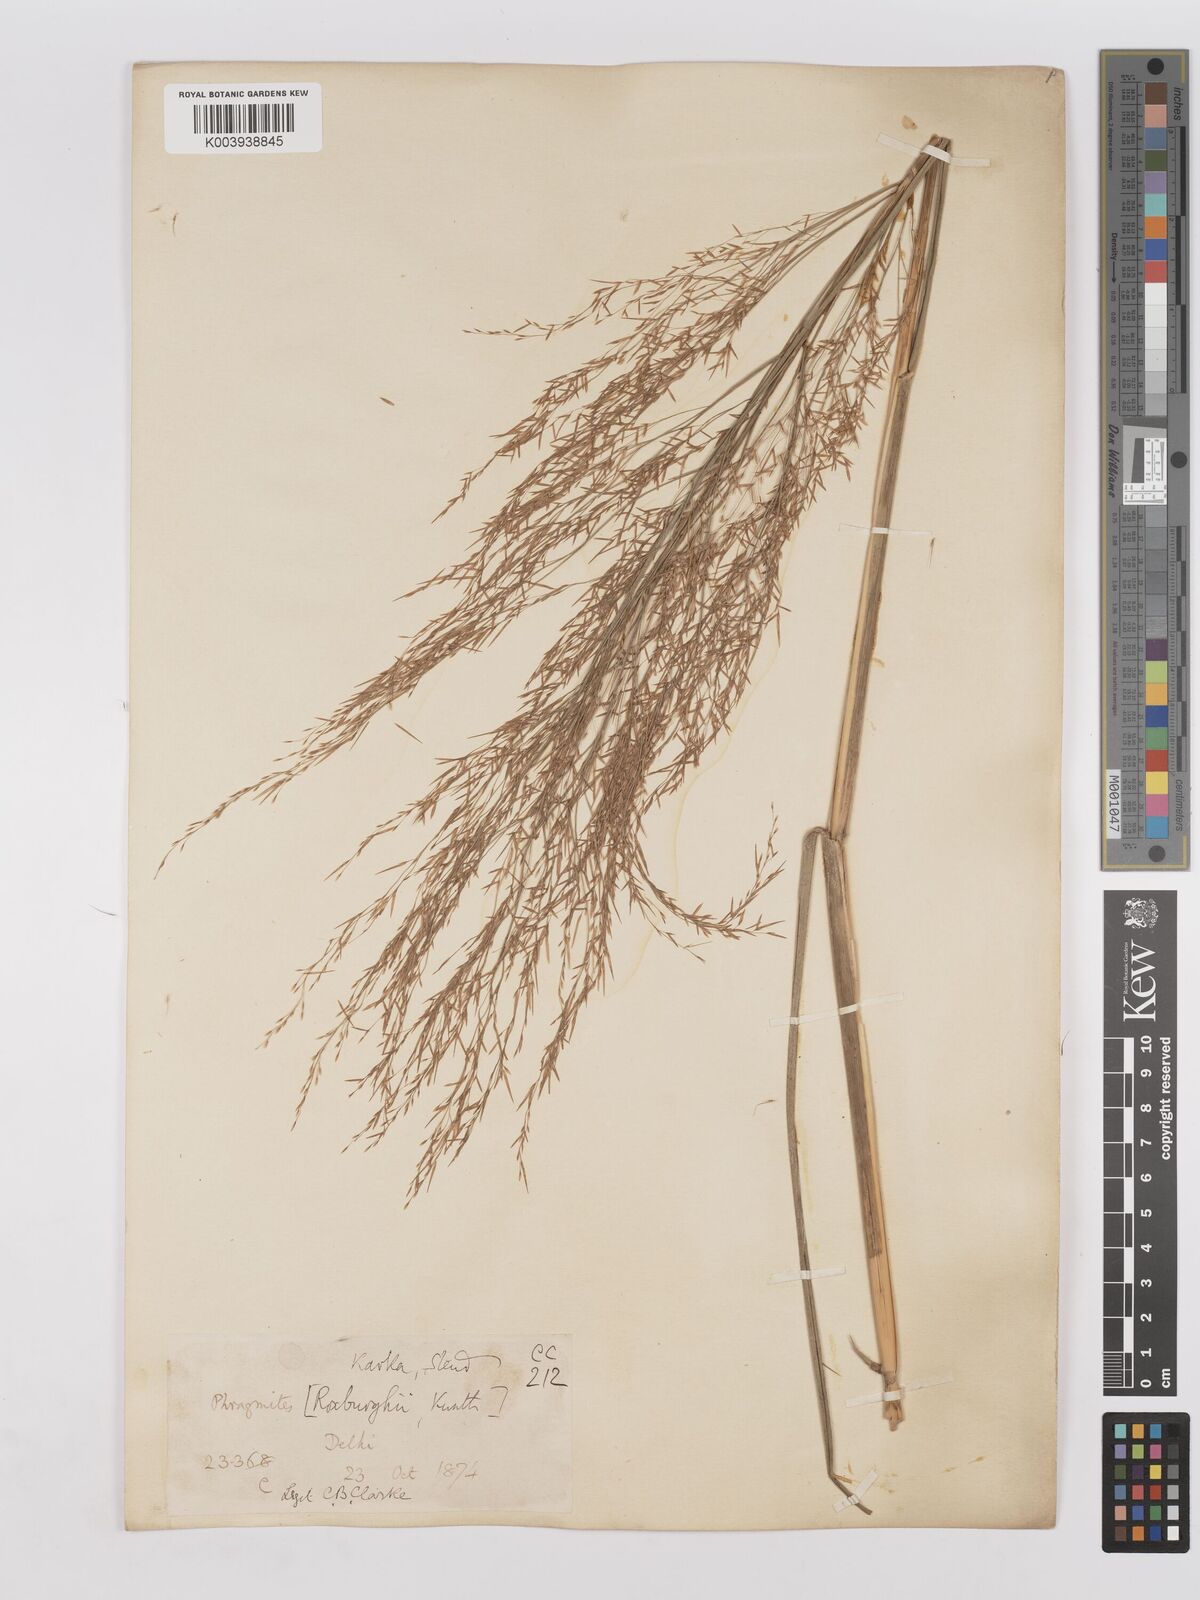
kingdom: Plantae
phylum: Tracheophyta
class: Liliopsida
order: Poales
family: Poaceae
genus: Phragmites
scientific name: Phragmites karka
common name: Tropical reed
